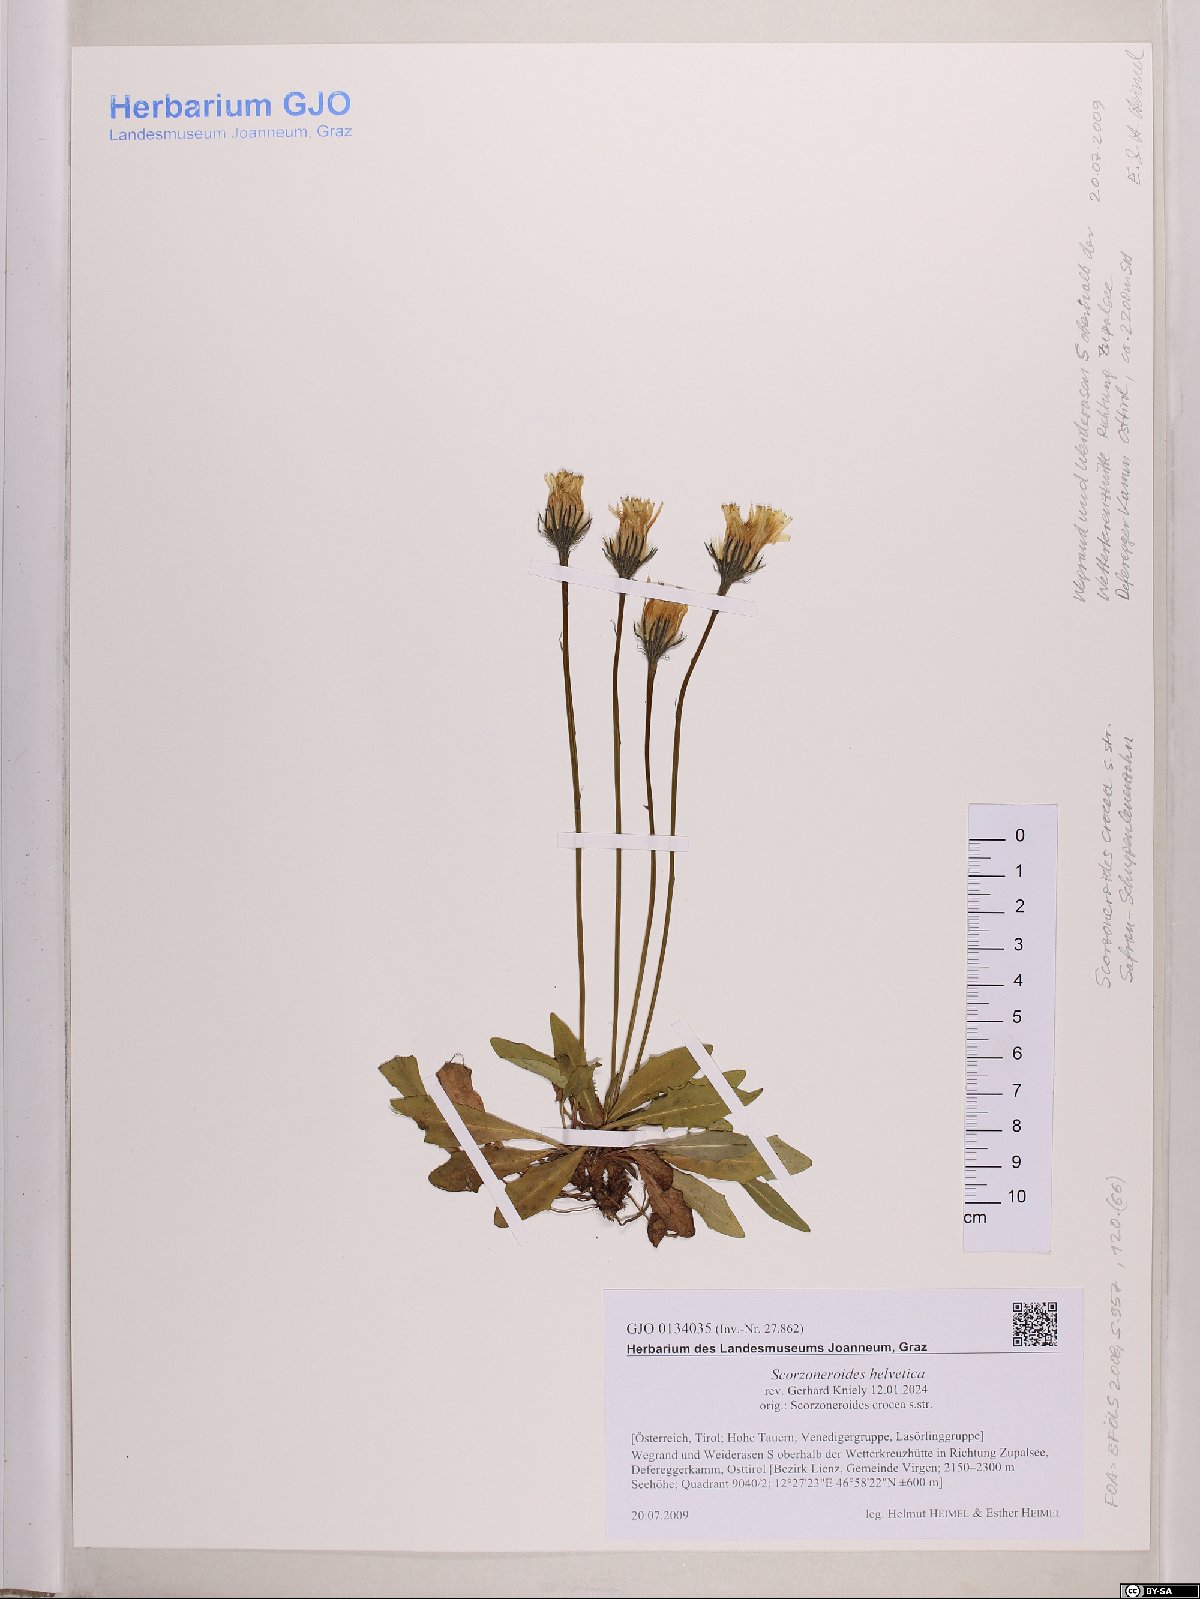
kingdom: Plantae
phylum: Tracheophyta
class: Magnoliopsida
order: Asterales
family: Asteraceae
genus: Scorzoneroides
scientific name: Scorzoneroides helvetica
